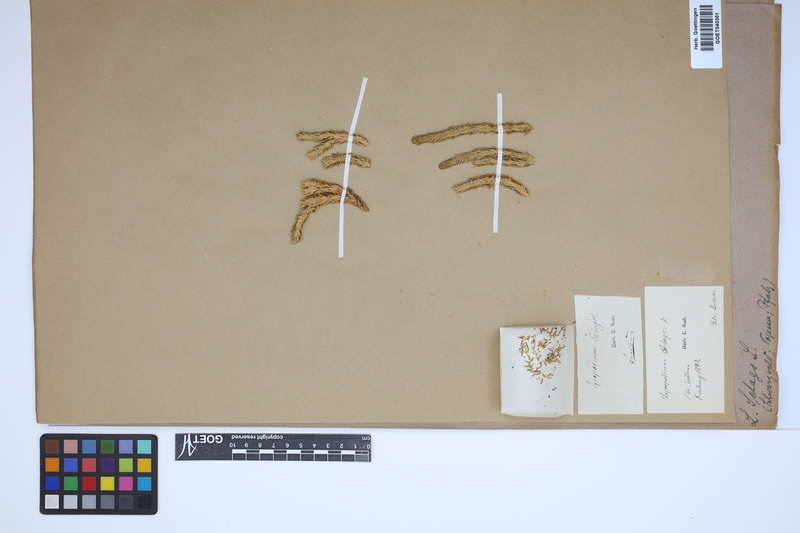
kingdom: Plantae
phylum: Tracheophyta
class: Lycopodiopsida
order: Lycopodiales
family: Lycopodiaceae
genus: Huperzia
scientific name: Huperzia selago
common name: Northern firmoss
